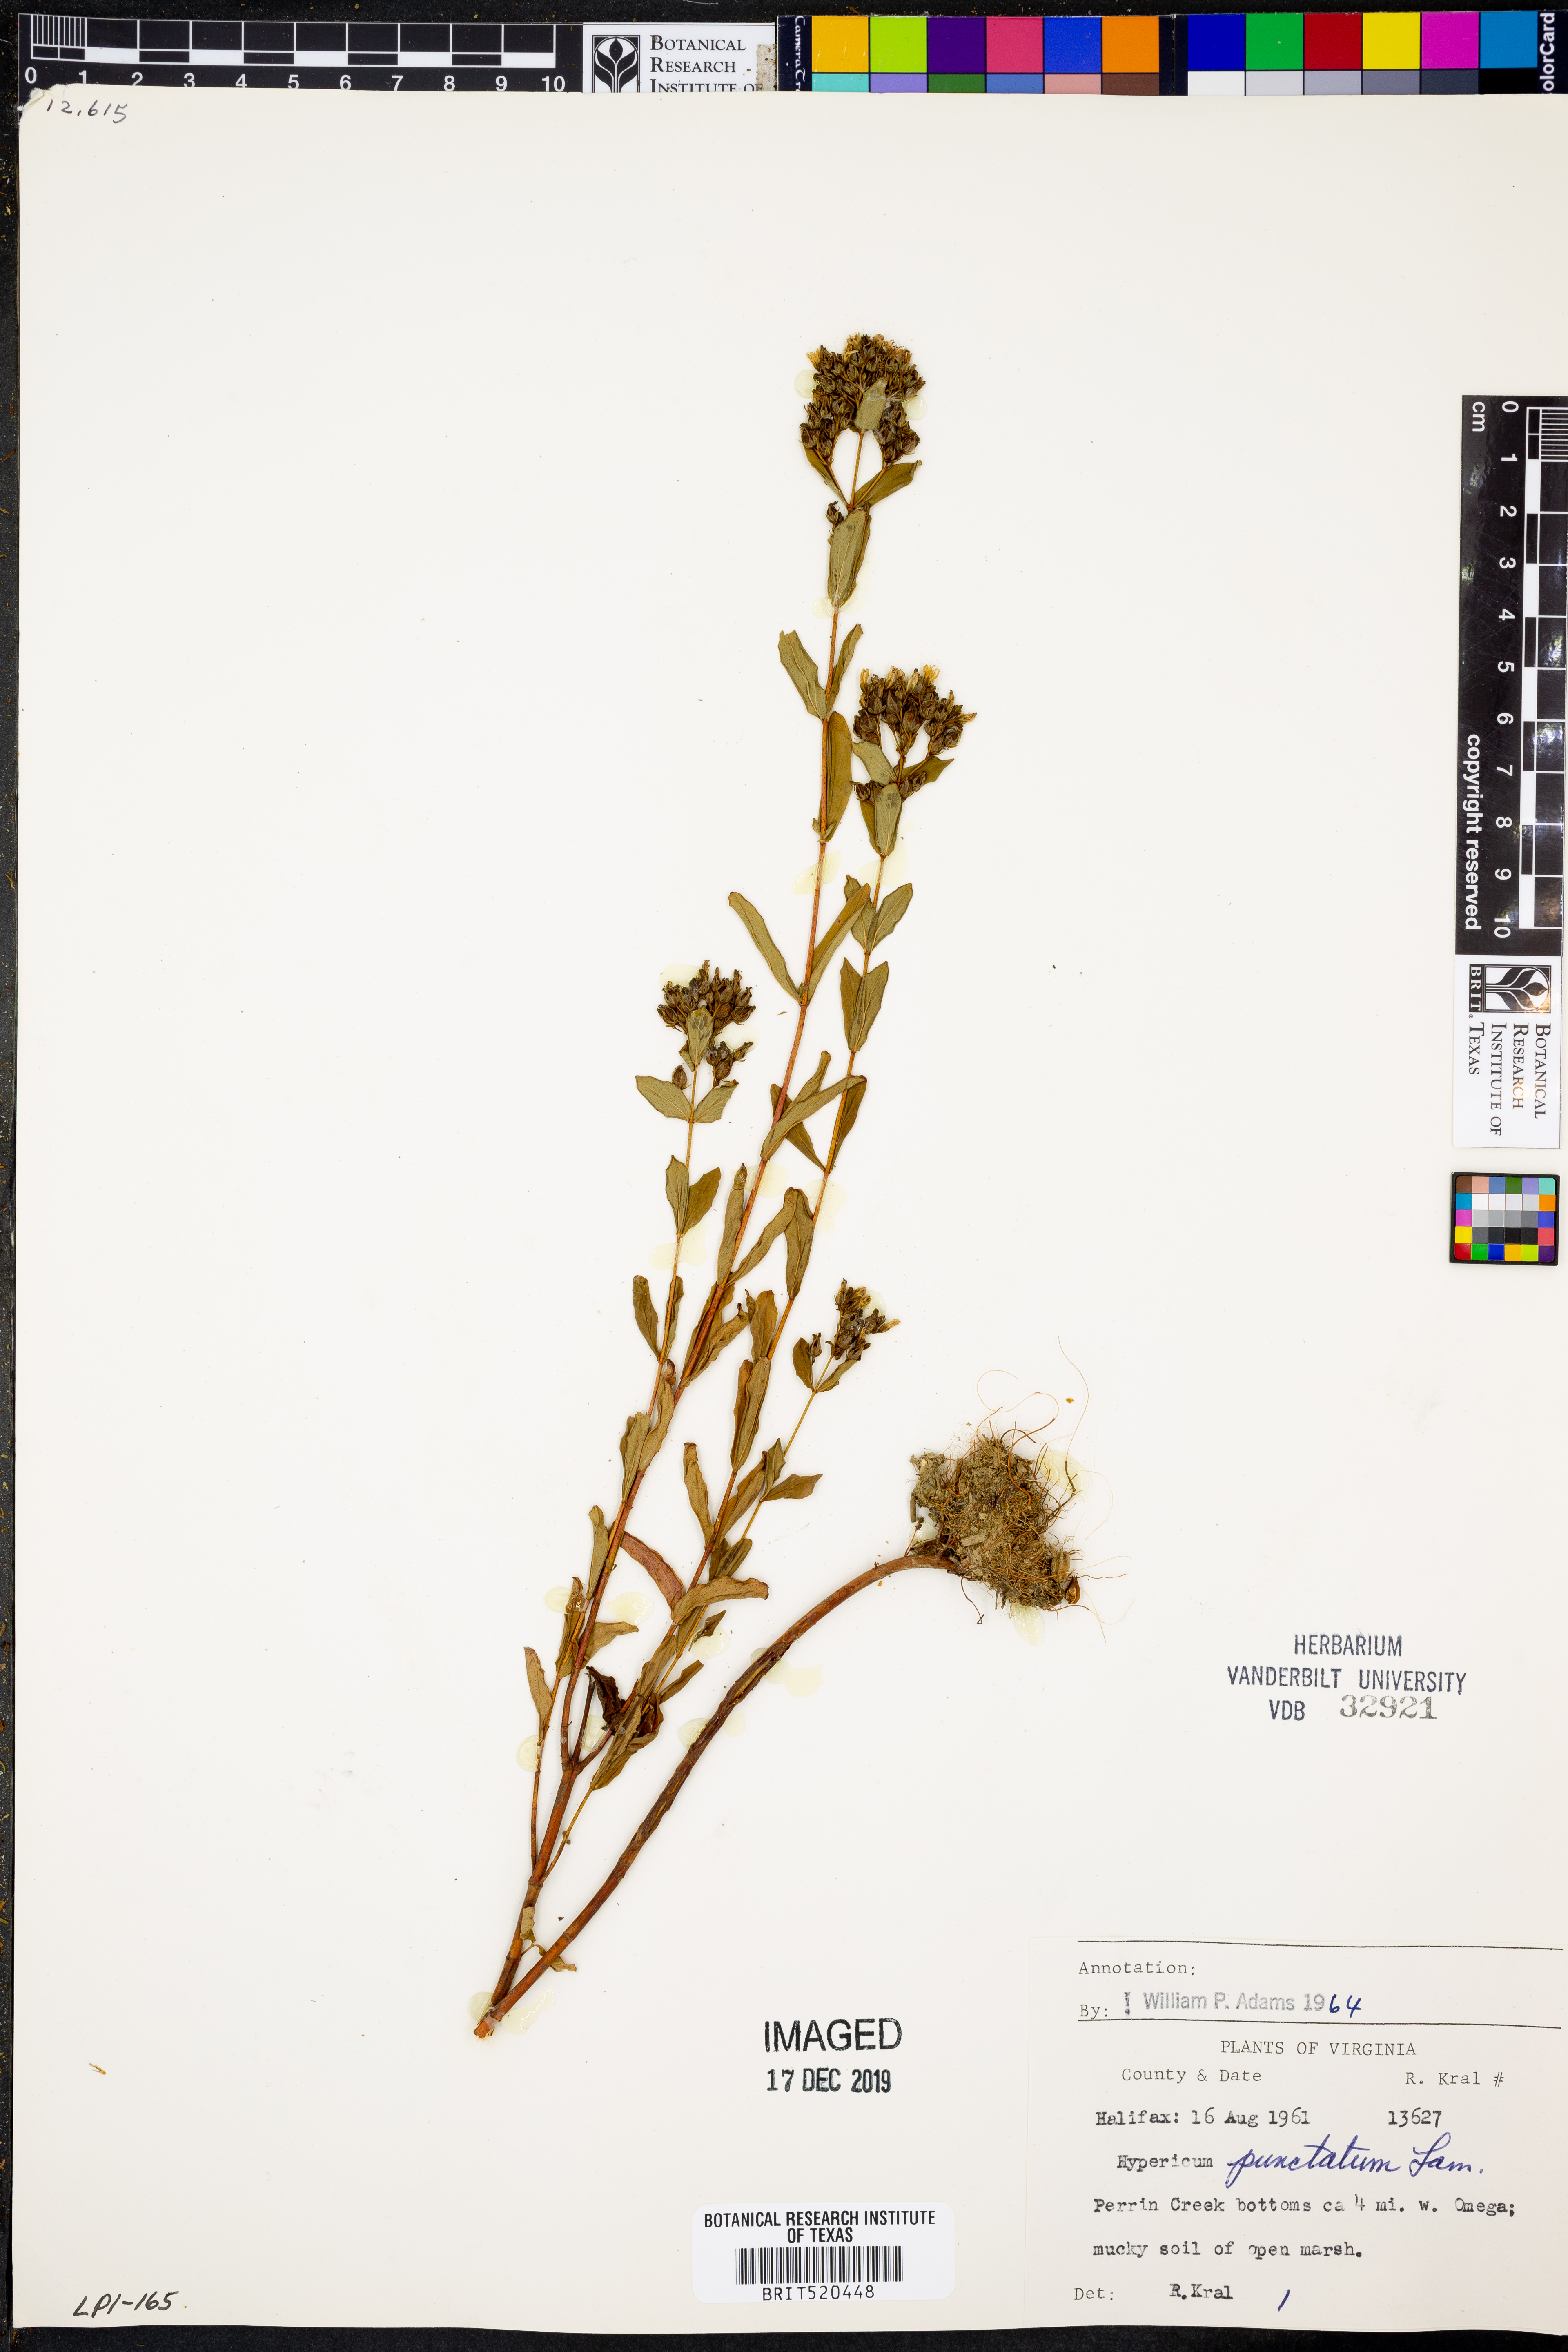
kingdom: Plantae
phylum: Tracheophyta
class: Magnoliopsida
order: Malpighiales
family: Hypericaceae
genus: Hypericum
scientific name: Hypericum punctatum
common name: Spotted st. john's-wort
